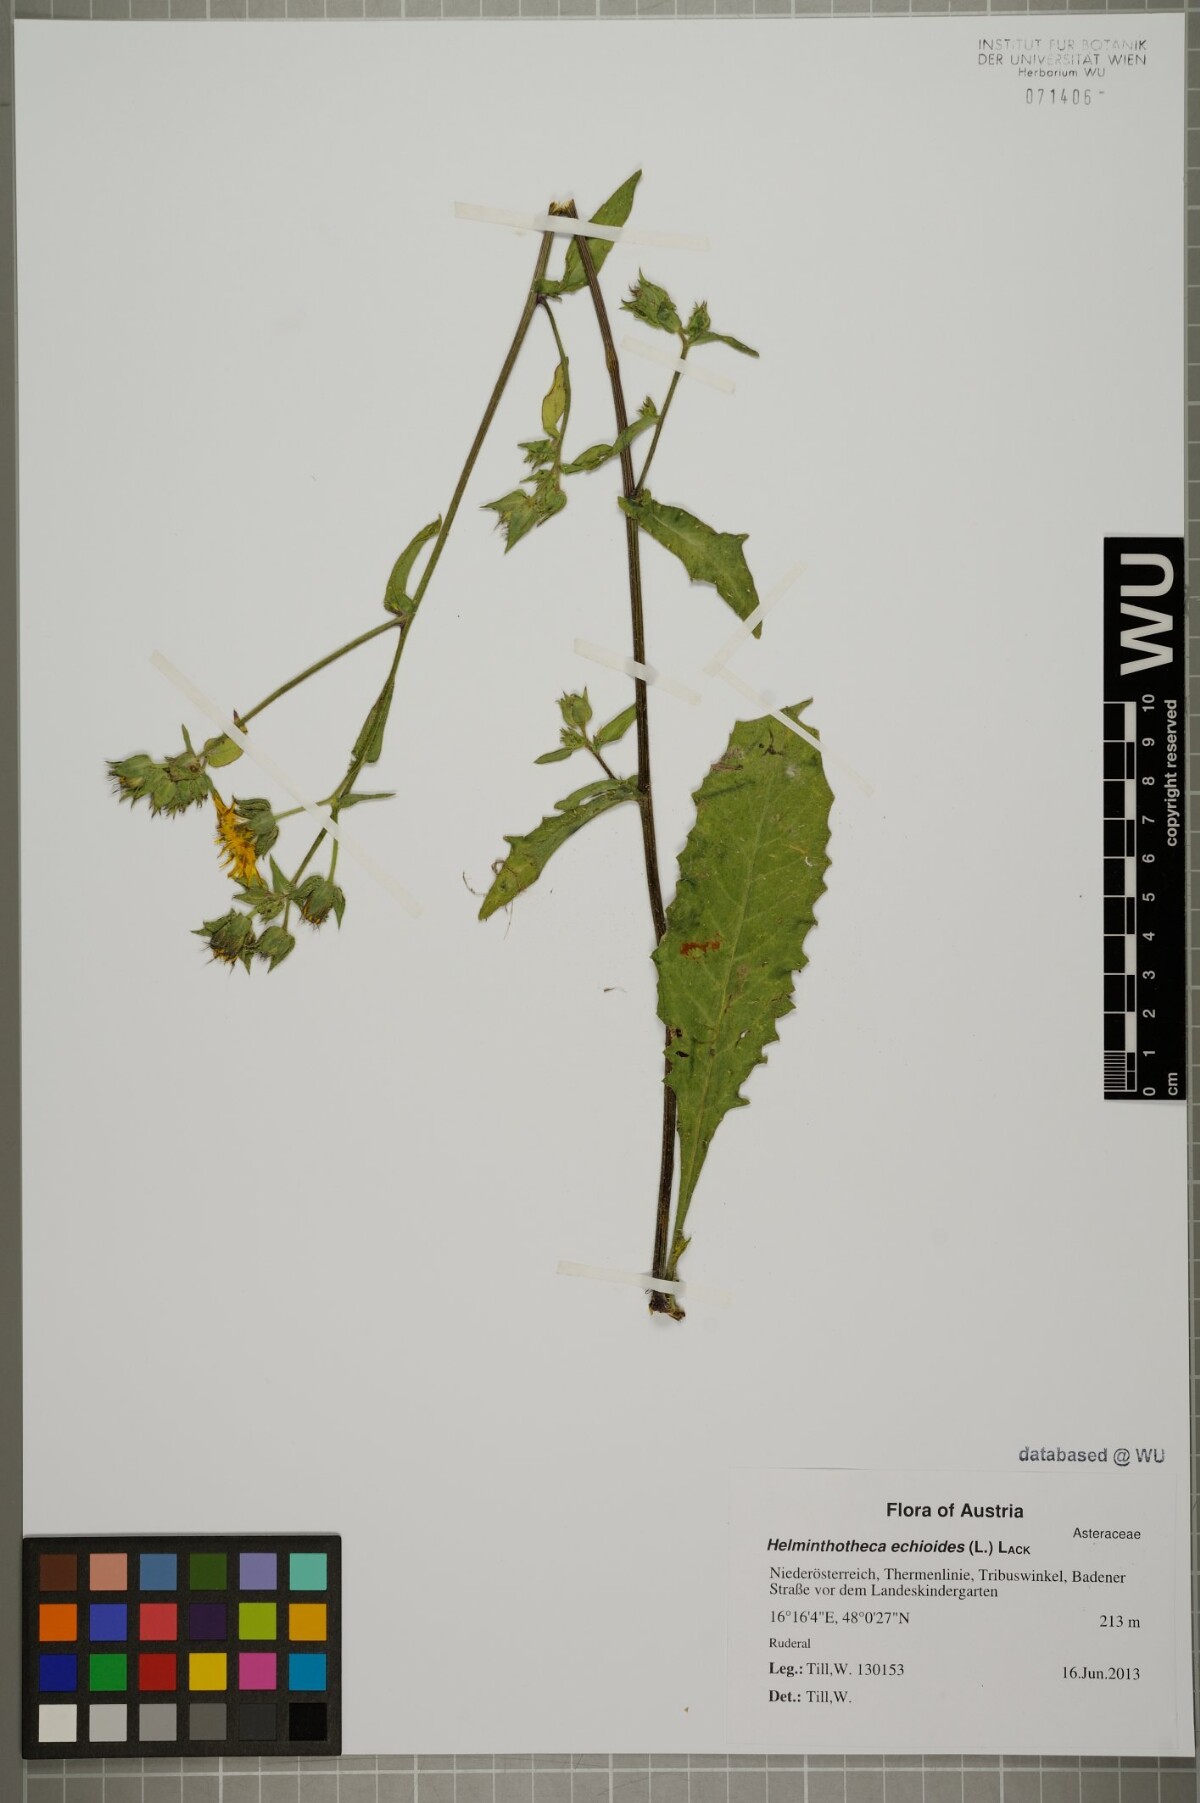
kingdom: Plantae
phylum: Tracheophyta
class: Magnoliopsida
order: Asterales
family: Asteraceae
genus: Helminthotheca
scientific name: Helminthotheca echioides
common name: Ox-tongue
